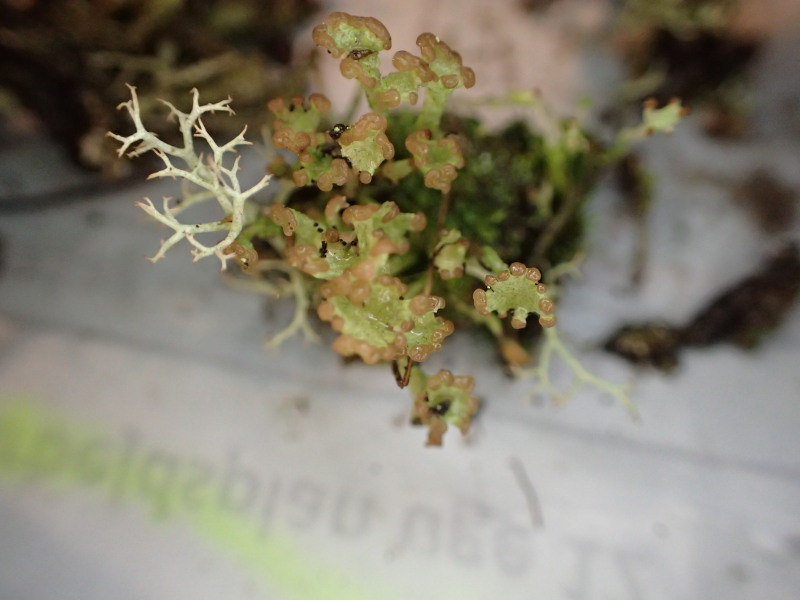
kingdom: Fungi
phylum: Ascomycota
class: Lecanoromycetes
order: Lecanorales
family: Cladoniaceae
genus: Cladonia
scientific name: Cladonia ramulosa
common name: kliddet bægerlav
